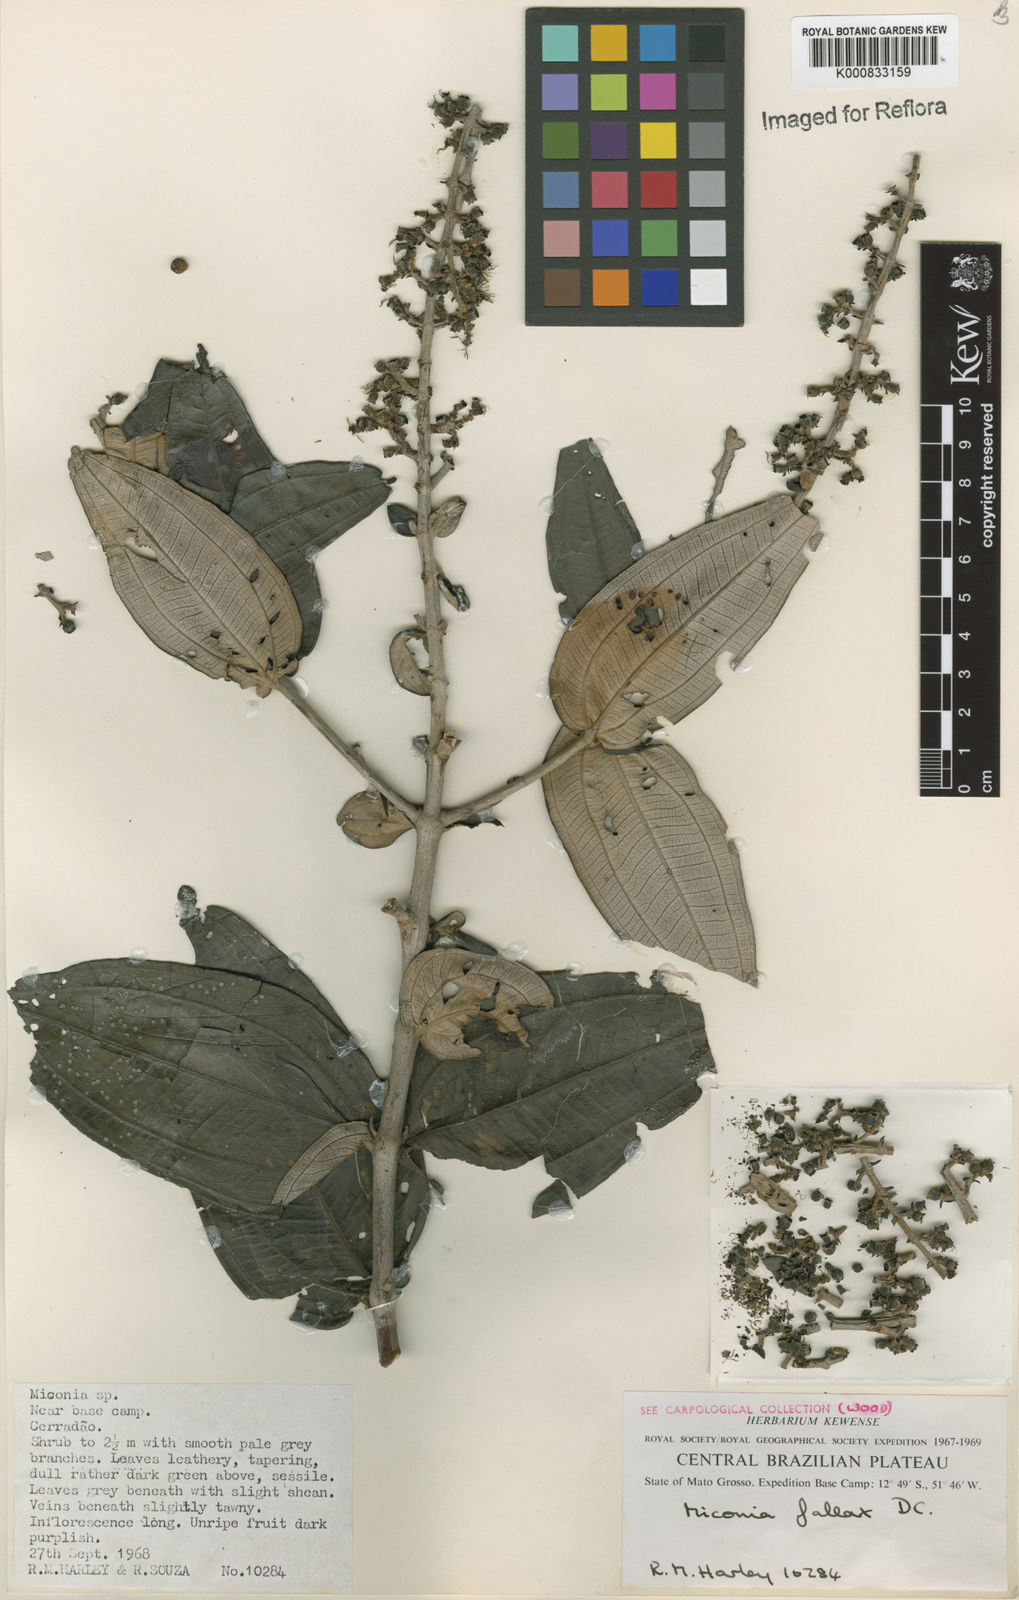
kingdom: Plantae
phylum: Tracheophyta
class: Magnoliopsida
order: Myrtales
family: Melastomataceae
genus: Miconia
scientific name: Miconia fallax
